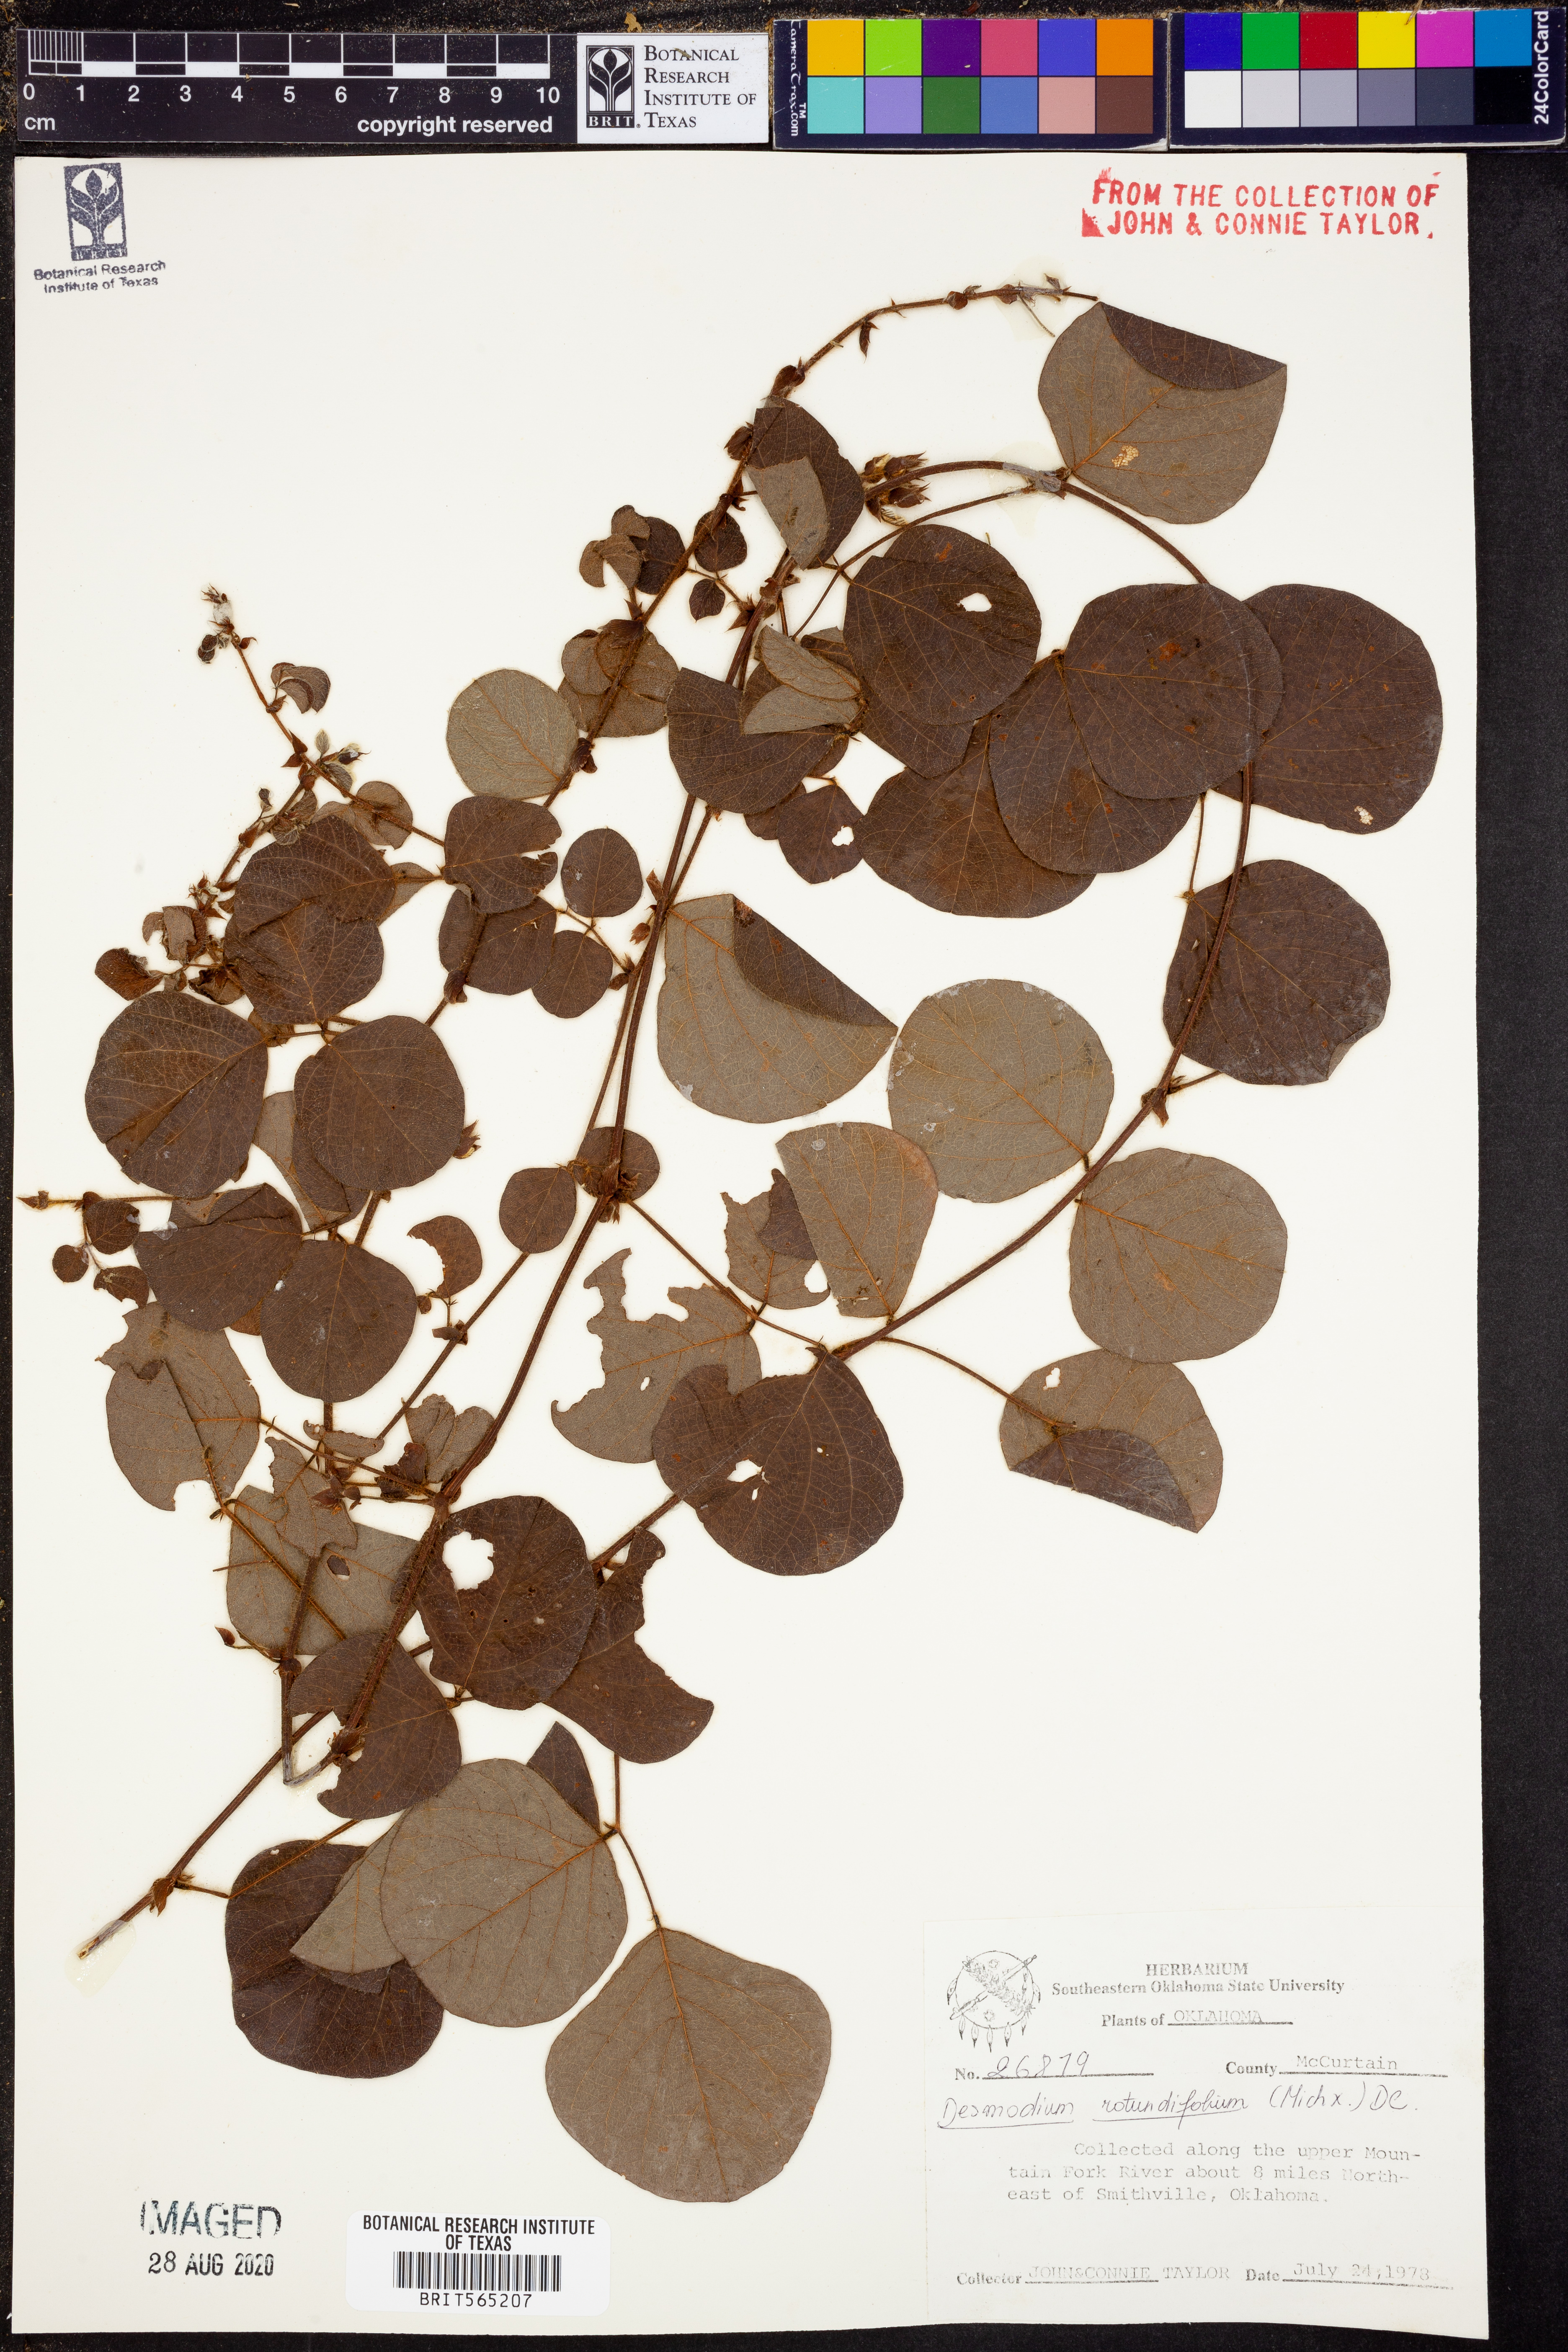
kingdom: Plantae
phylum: Tracheophyta
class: Magnoliopsida
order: Fabales
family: Fabaceae
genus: Desmodium
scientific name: Desmodium rotundifolium
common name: Dollarleaf
